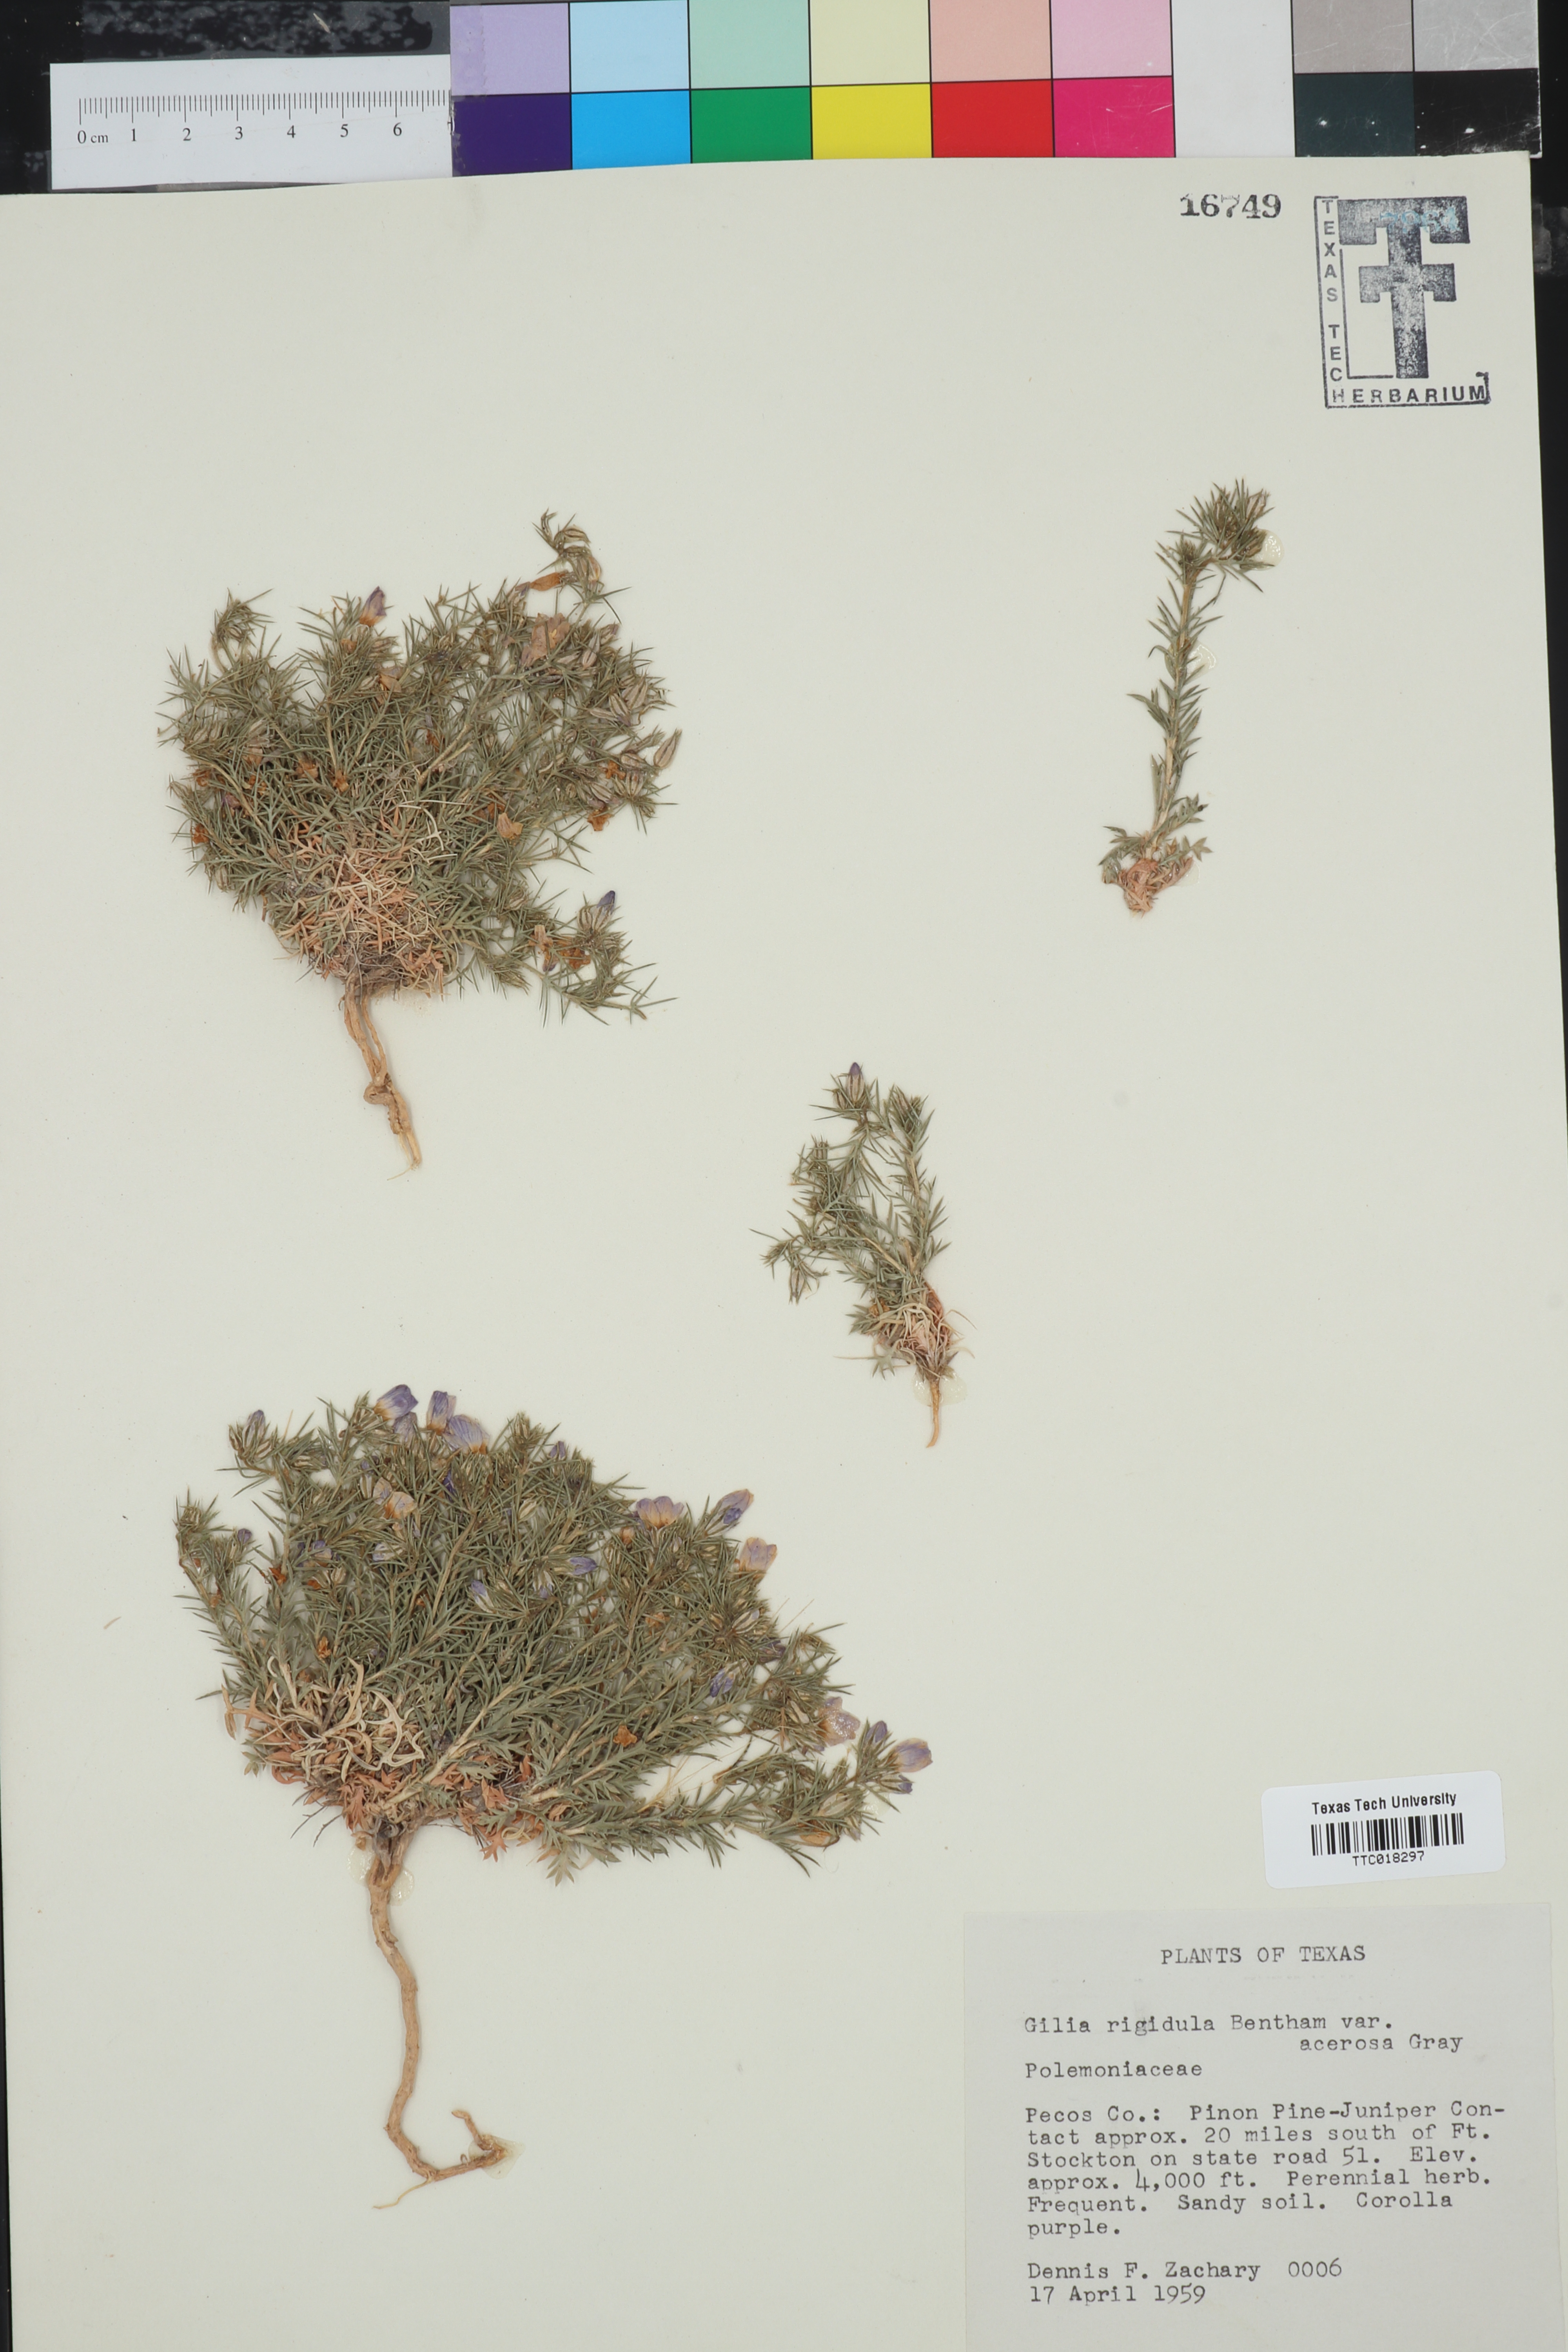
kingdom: Plantae
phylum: Tracheophyta
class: Magnoliopsida
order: Ericales
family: Polemoniaceae
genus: Giliastrum
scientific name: Giliastrum acerosum
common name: Bluebowls
